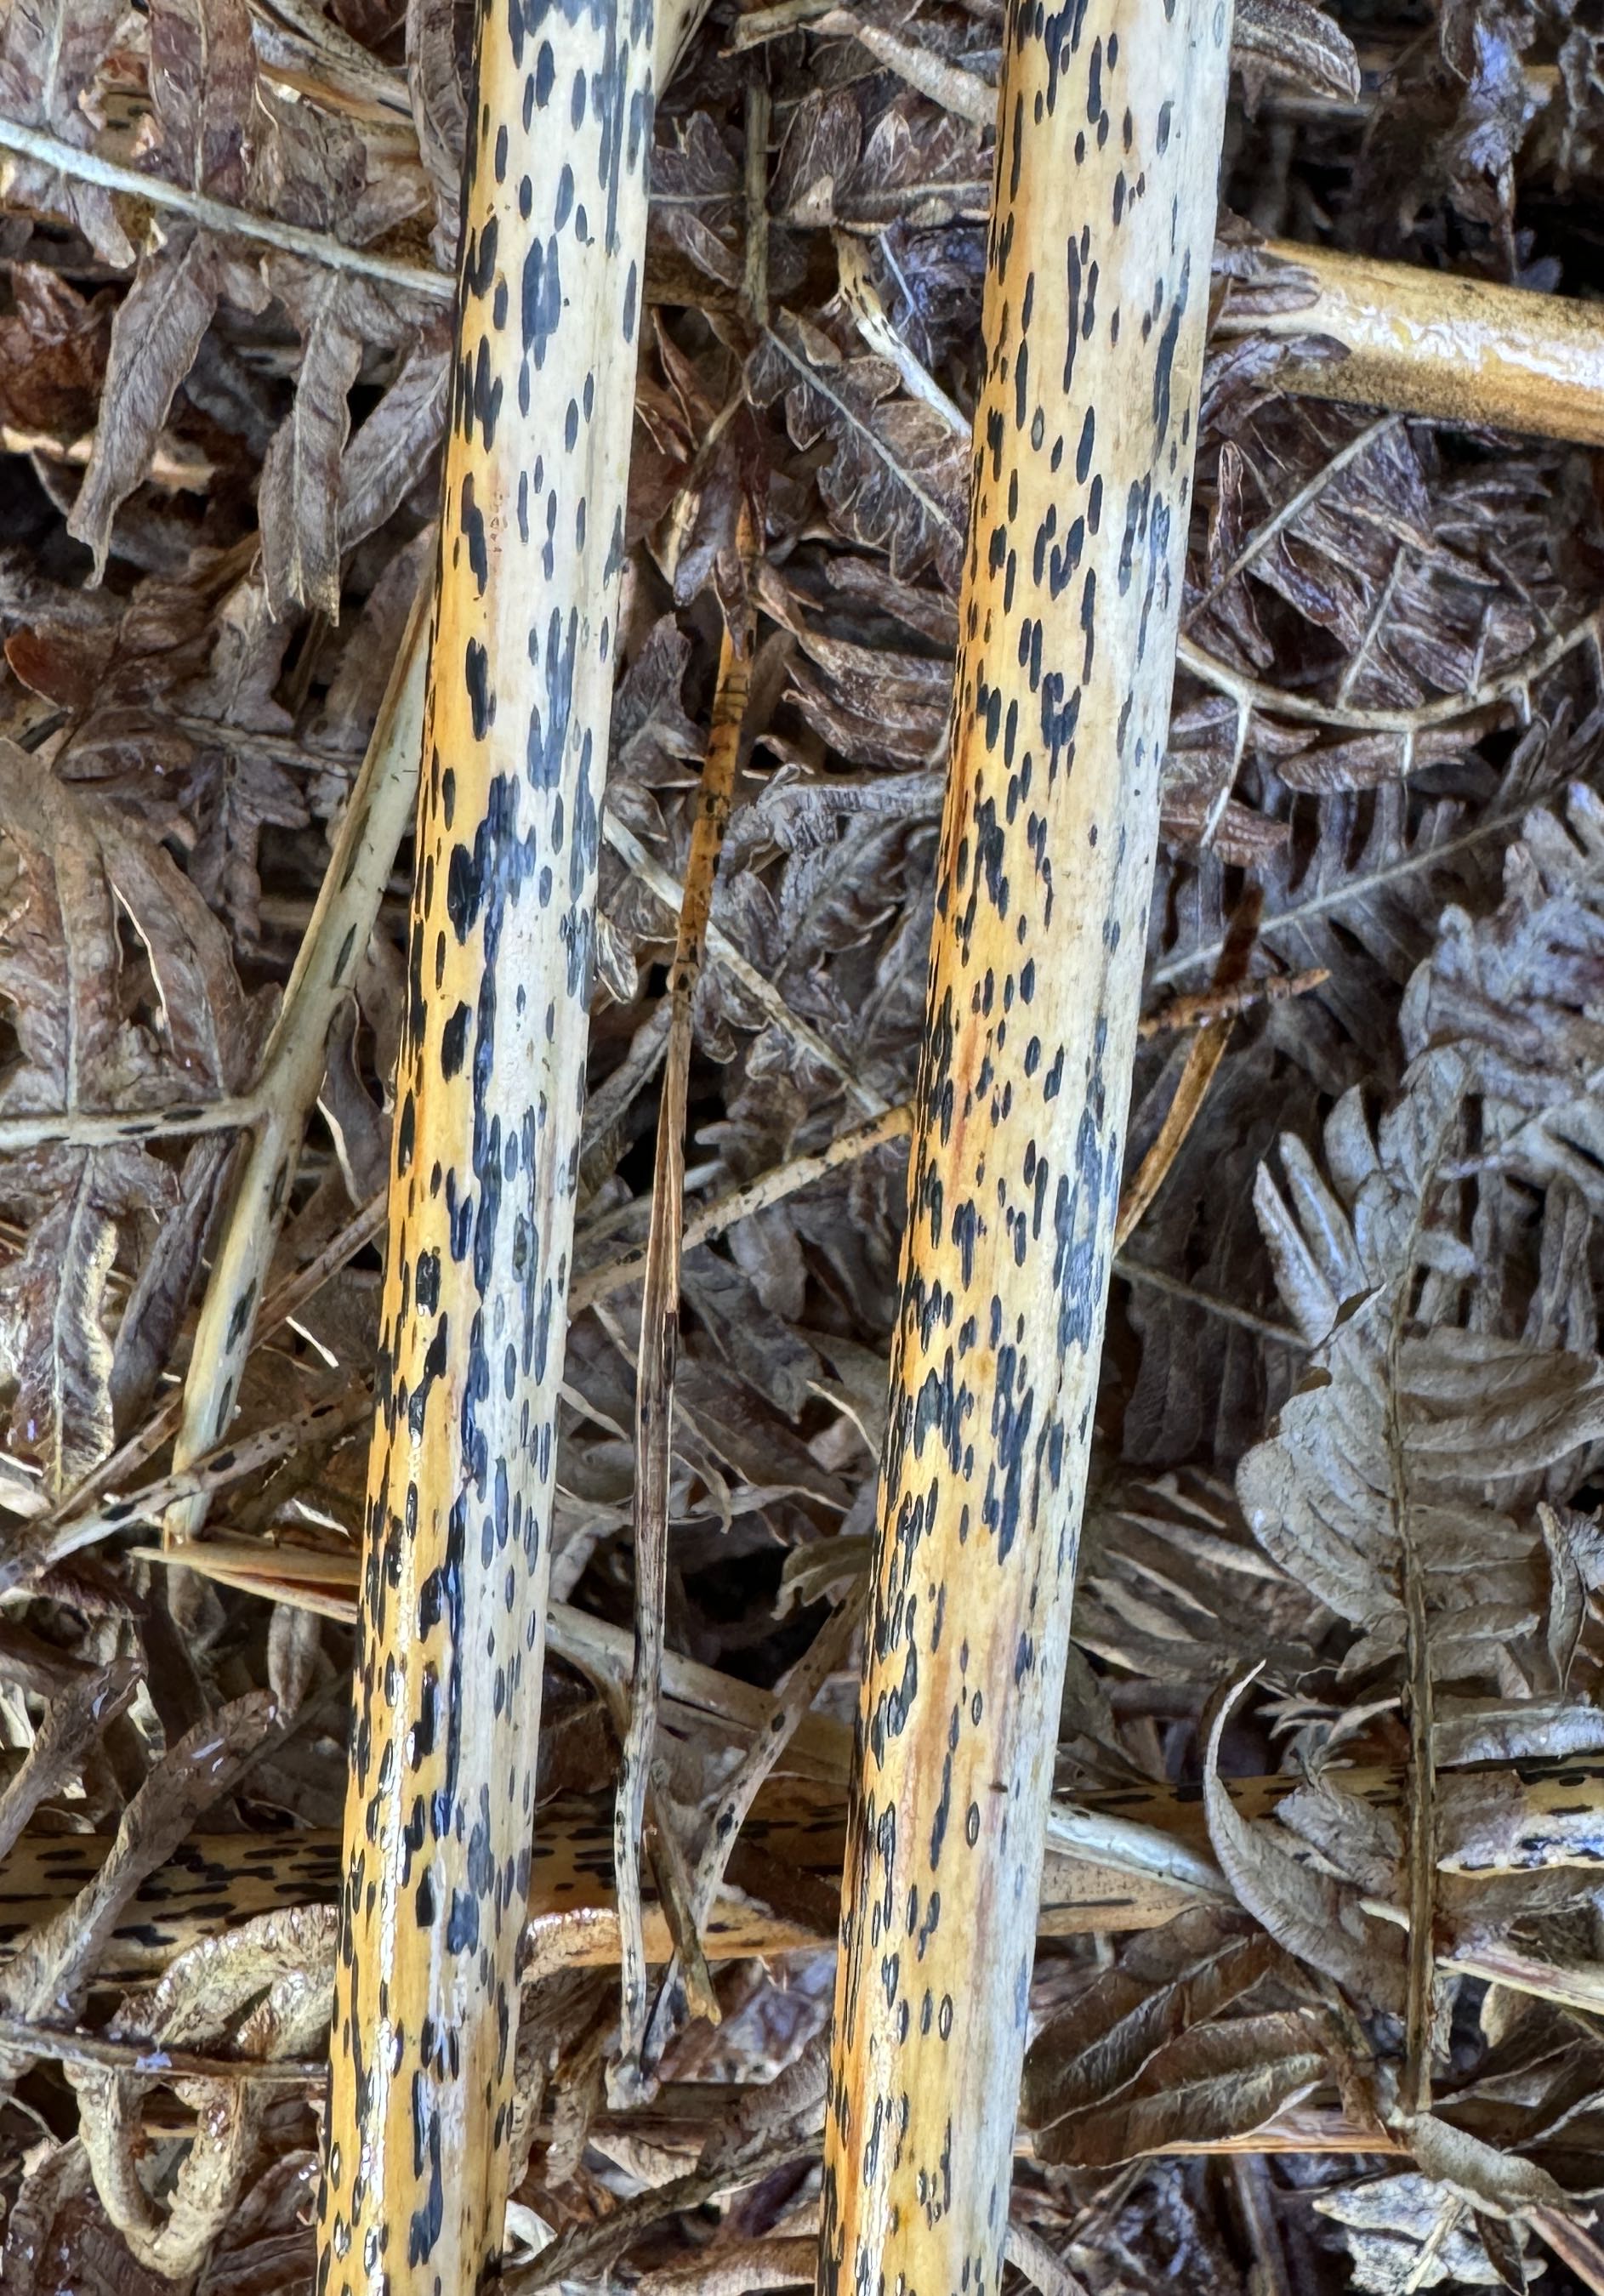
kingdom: Fungi
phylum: Ascomycota
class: Dothideomycetes
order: Pleosporales
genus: Rhopographus
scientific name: Rhopographus filicinus
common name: Bracken map
